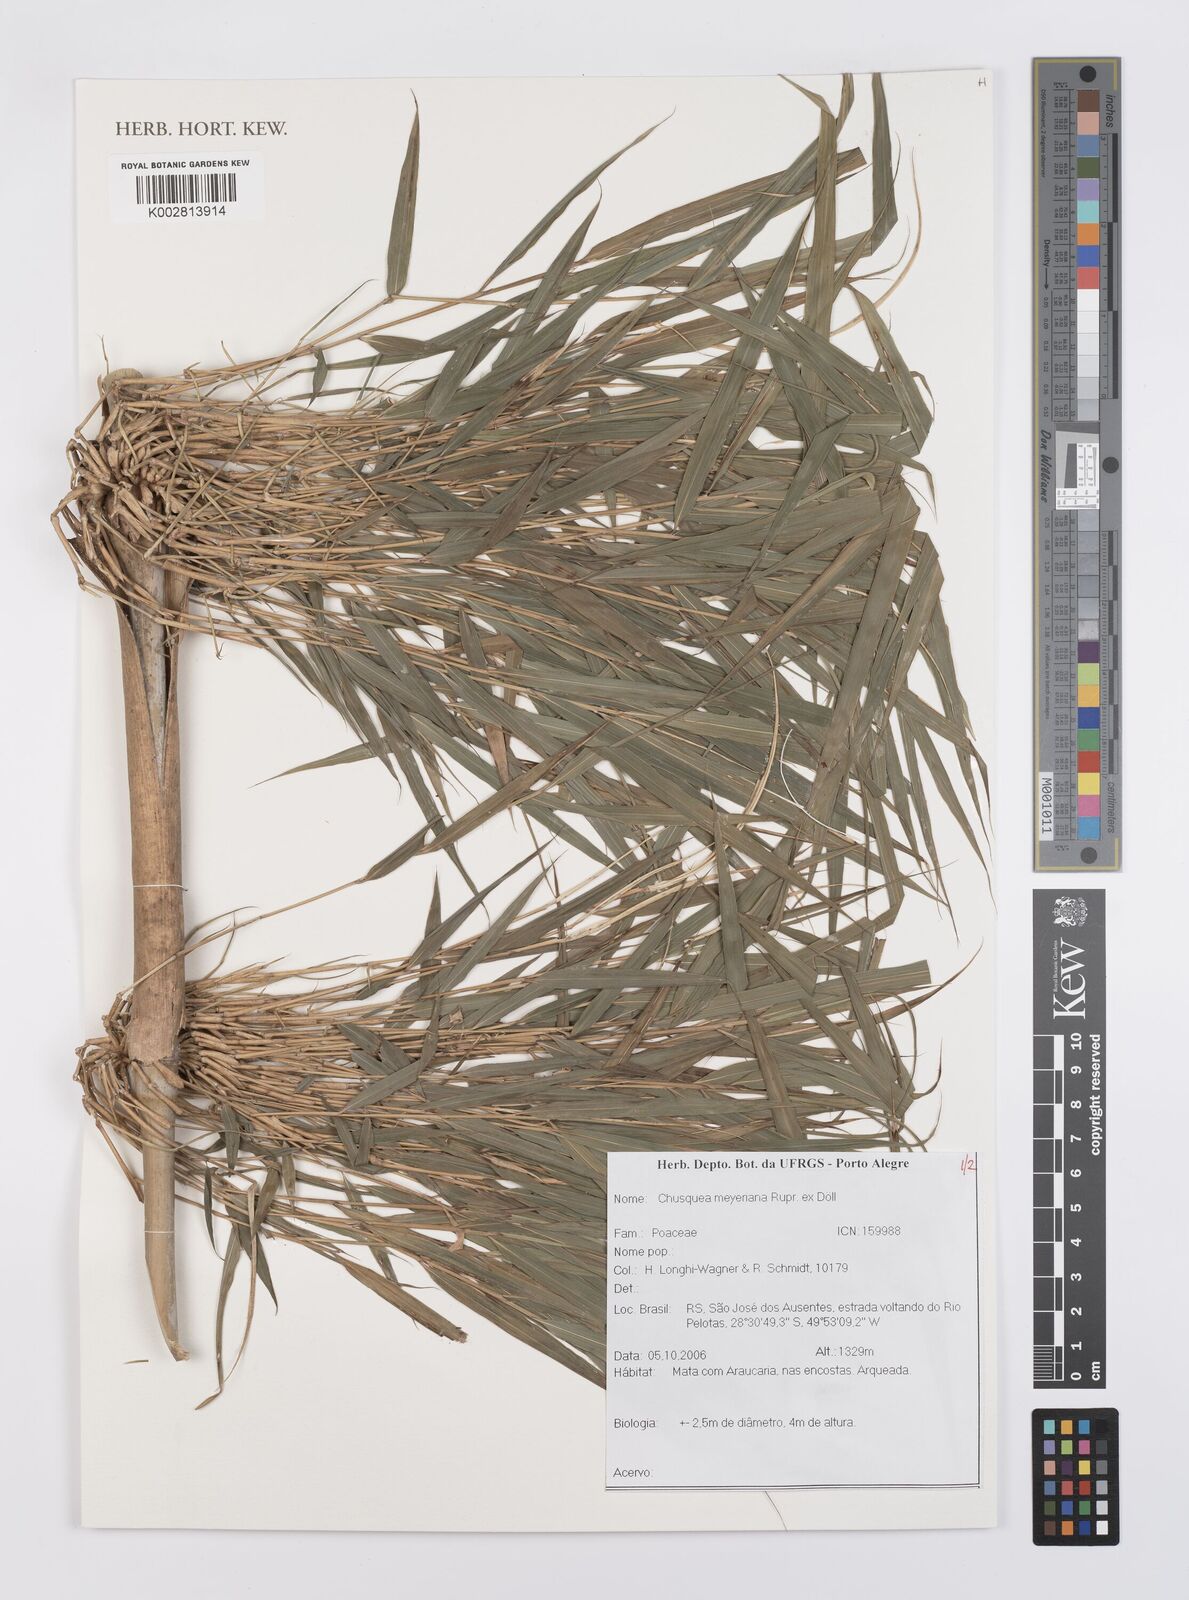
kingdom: Plantae
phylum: Tracheophyta
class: Liliopsida
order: Poales
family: Poaceae
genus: Chusquea
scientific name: Chusquea meyeriana
